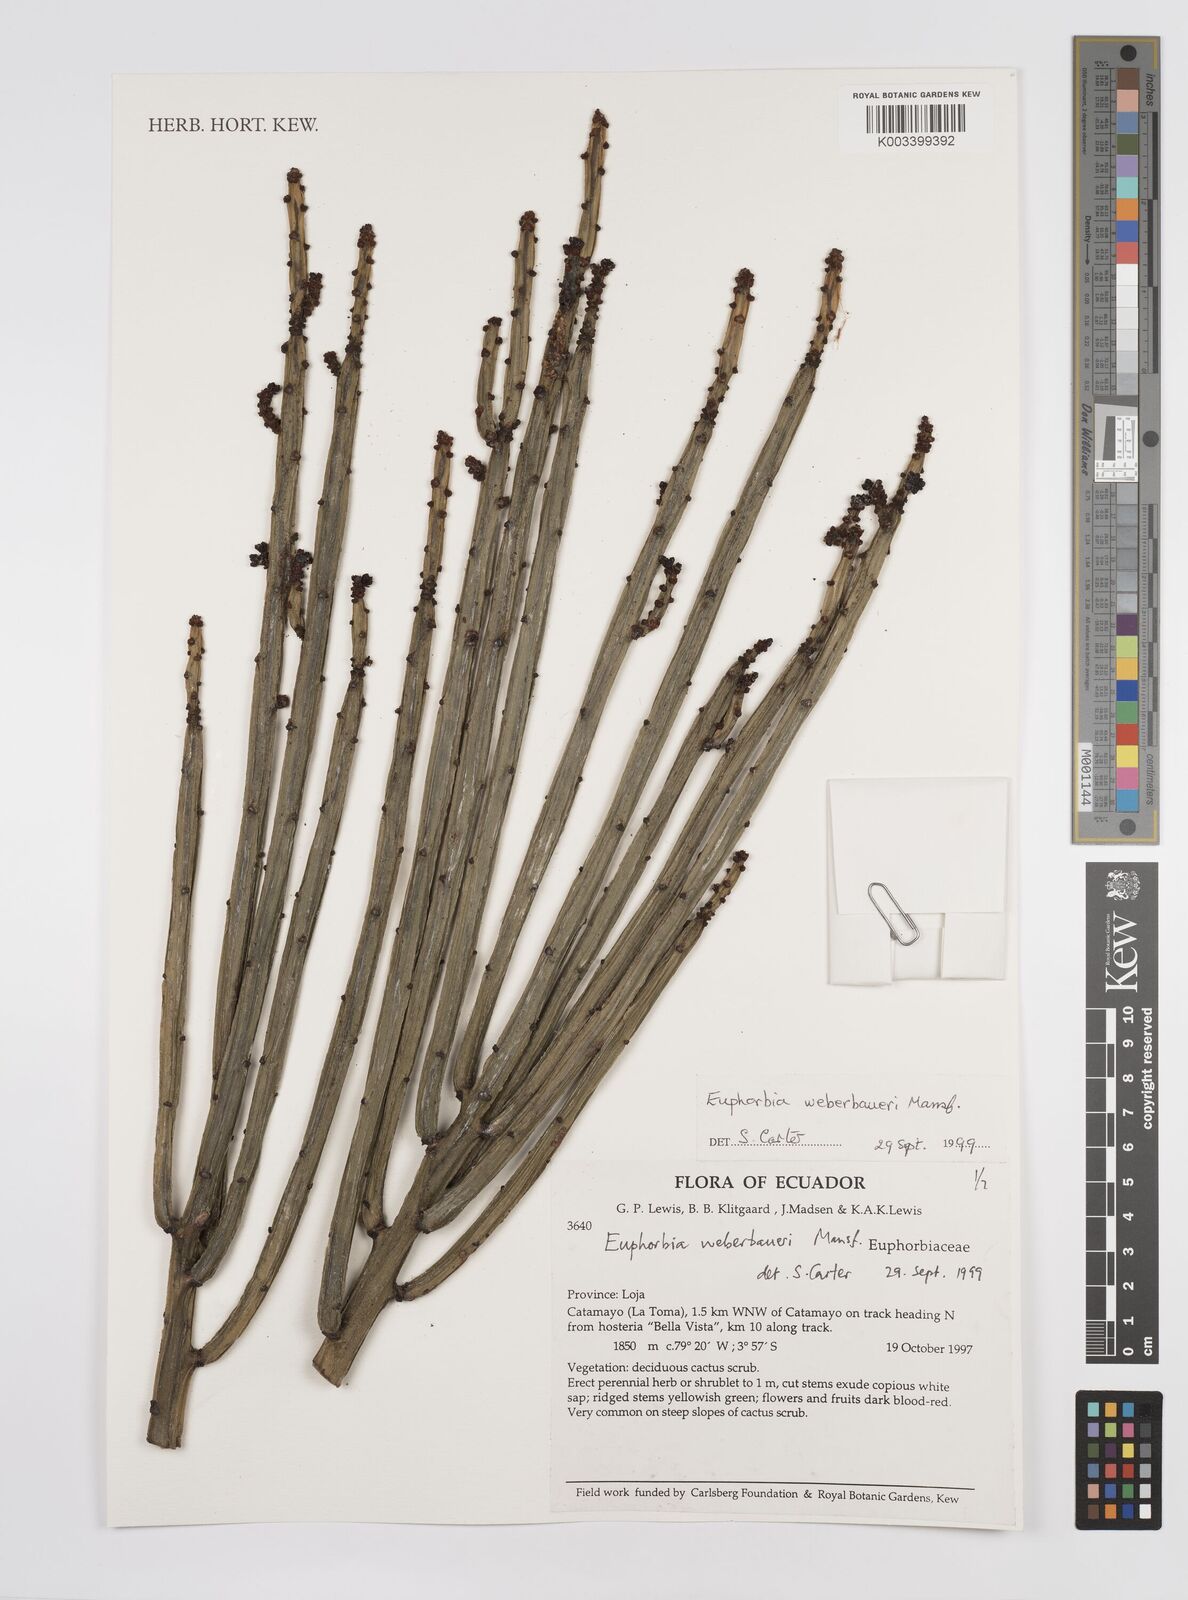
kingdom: Plantae
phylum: Tracheophyta
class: Magnoliopsida
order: Malpighiales
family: Euphorbiaceae
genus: Euphorbia
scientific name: Euphorbia weberbaueri
